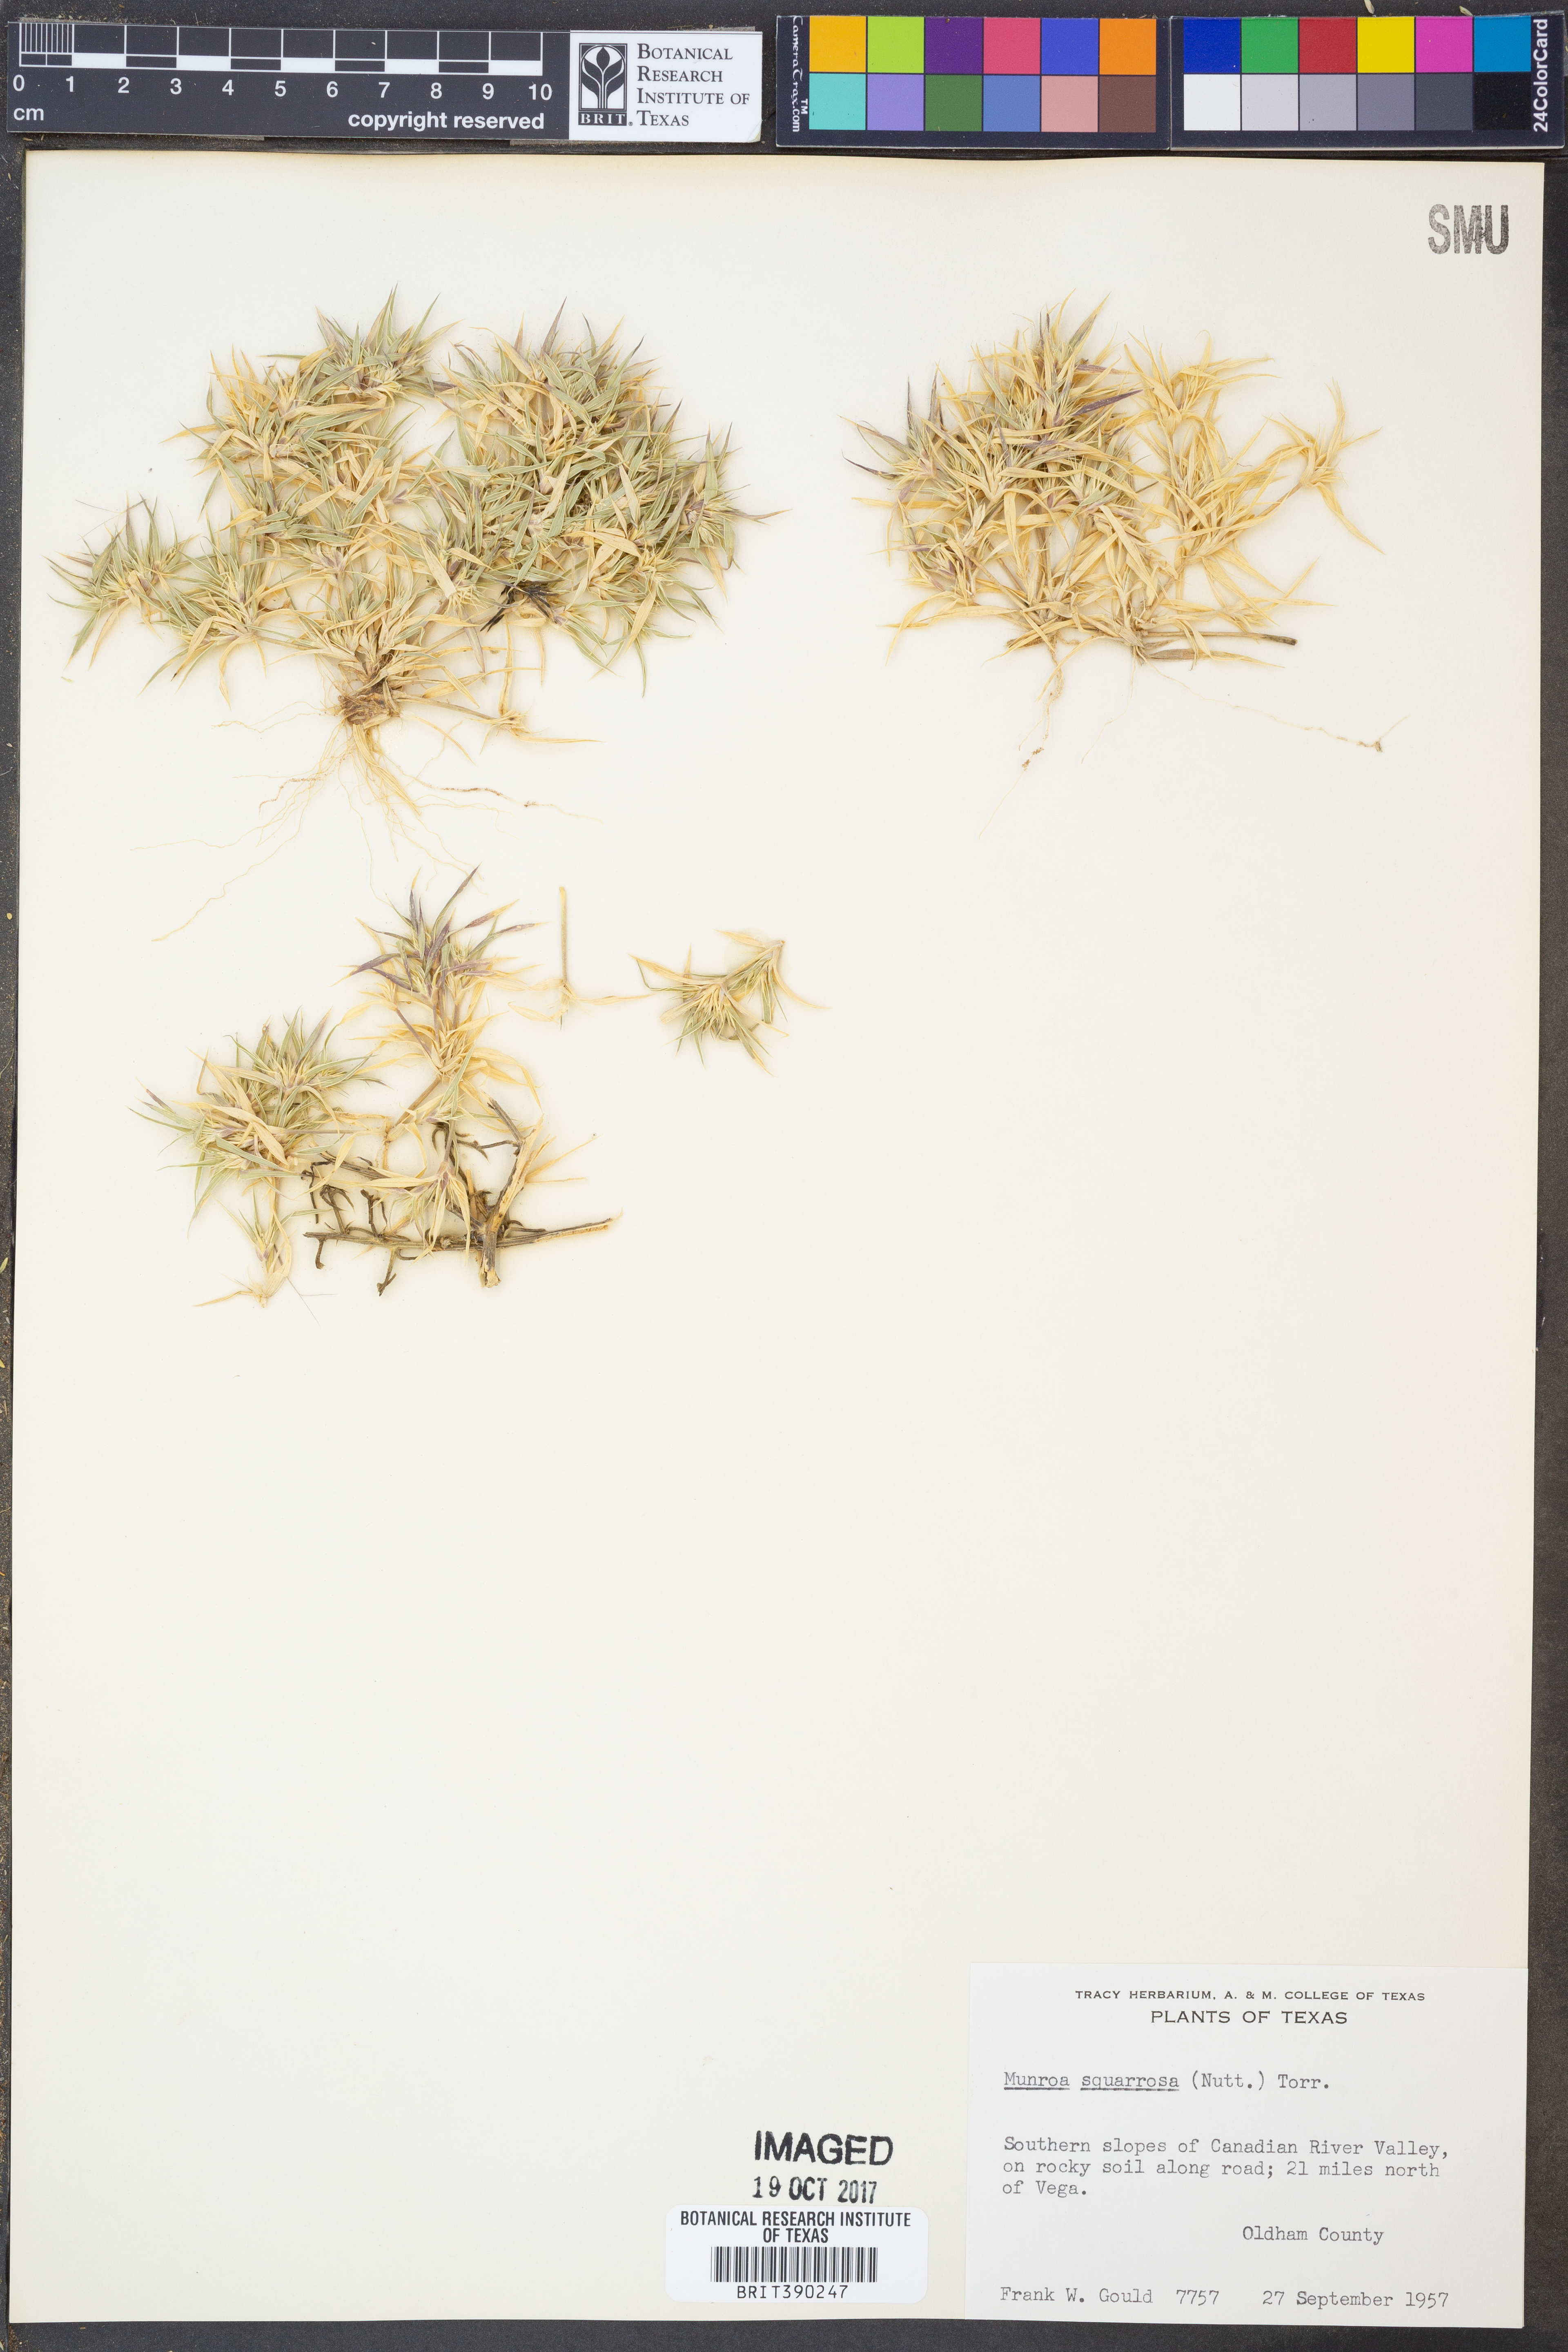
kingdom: Plantae
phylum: Tracheophyta
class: Liliopsida
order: Poales
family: Poaceae
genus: Munroa
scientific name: Munroa squarrosa
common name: False buffalo grass
